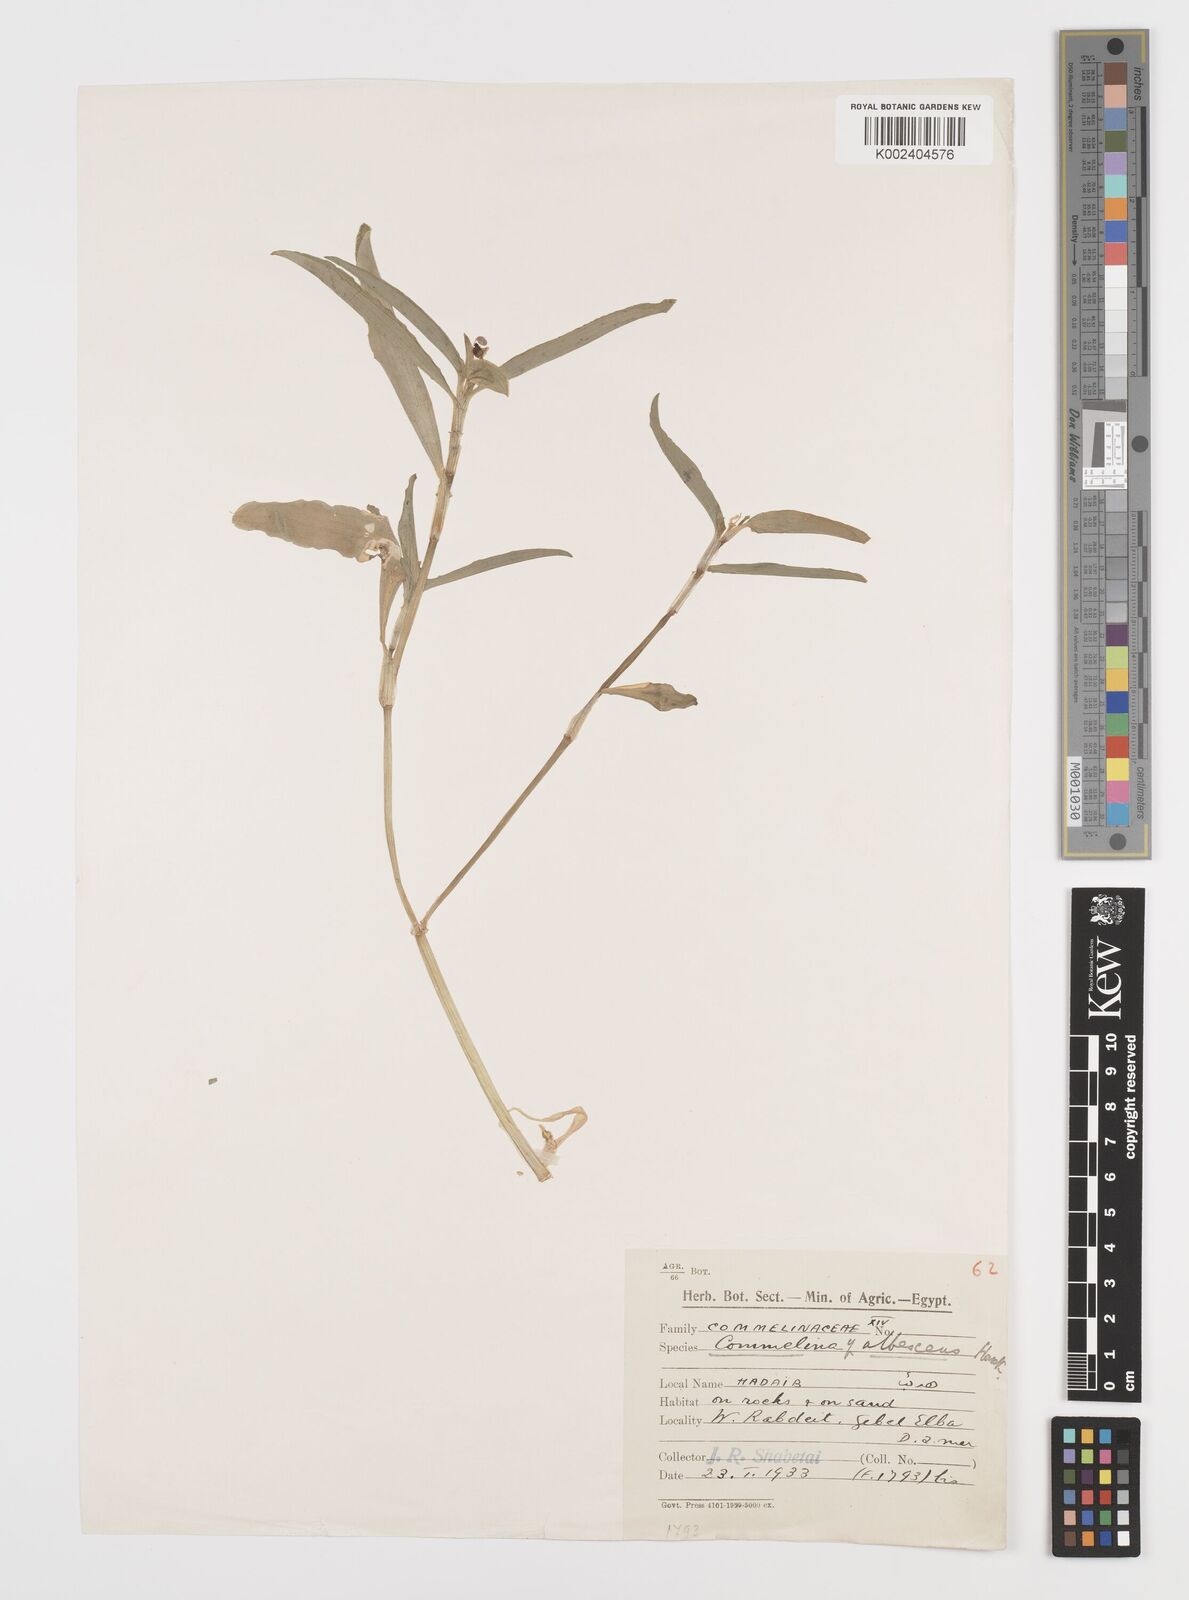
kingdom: Plantae
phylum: Tracheophyta
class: Liliopsida
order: Commelinales
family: Commelinaceae
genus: Commelina
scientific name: Commelina albescens
